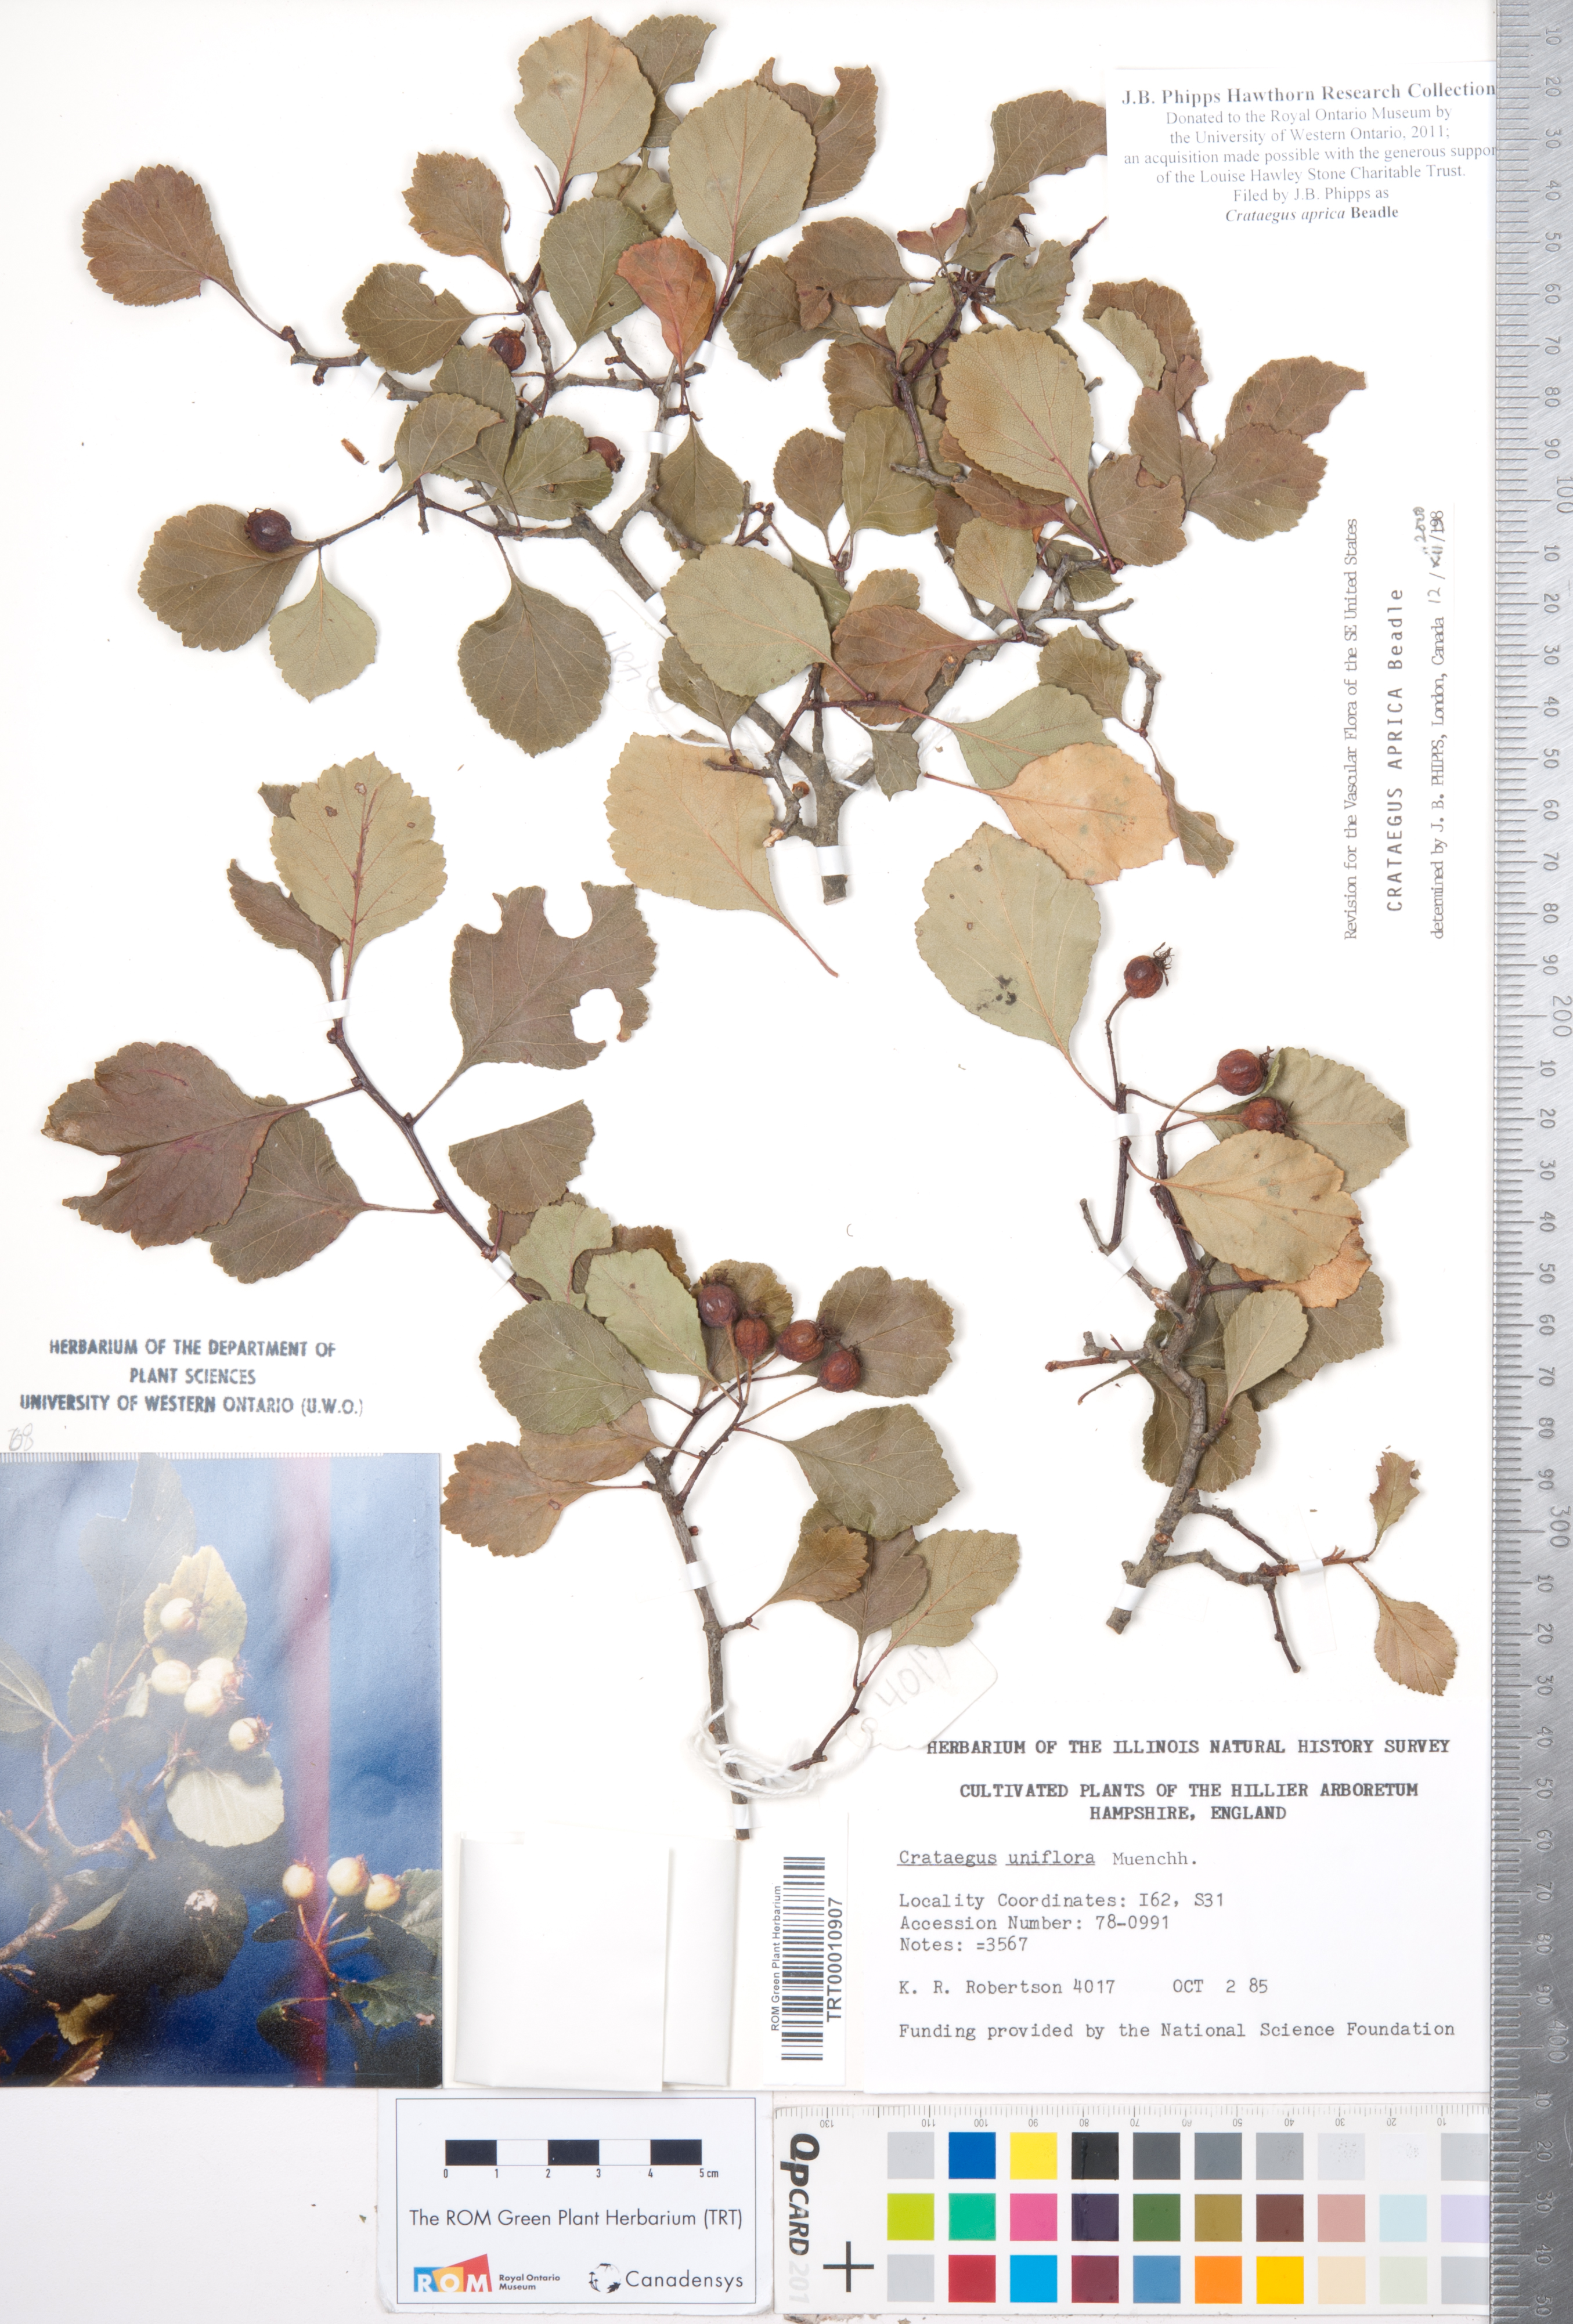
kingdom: Plantae
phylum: Tracheophyta
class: Magnoliopsida
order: Rosales
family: Rosaceae
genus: Crataegus
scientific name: Crataegus aprica
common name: Sunny hawthorn
